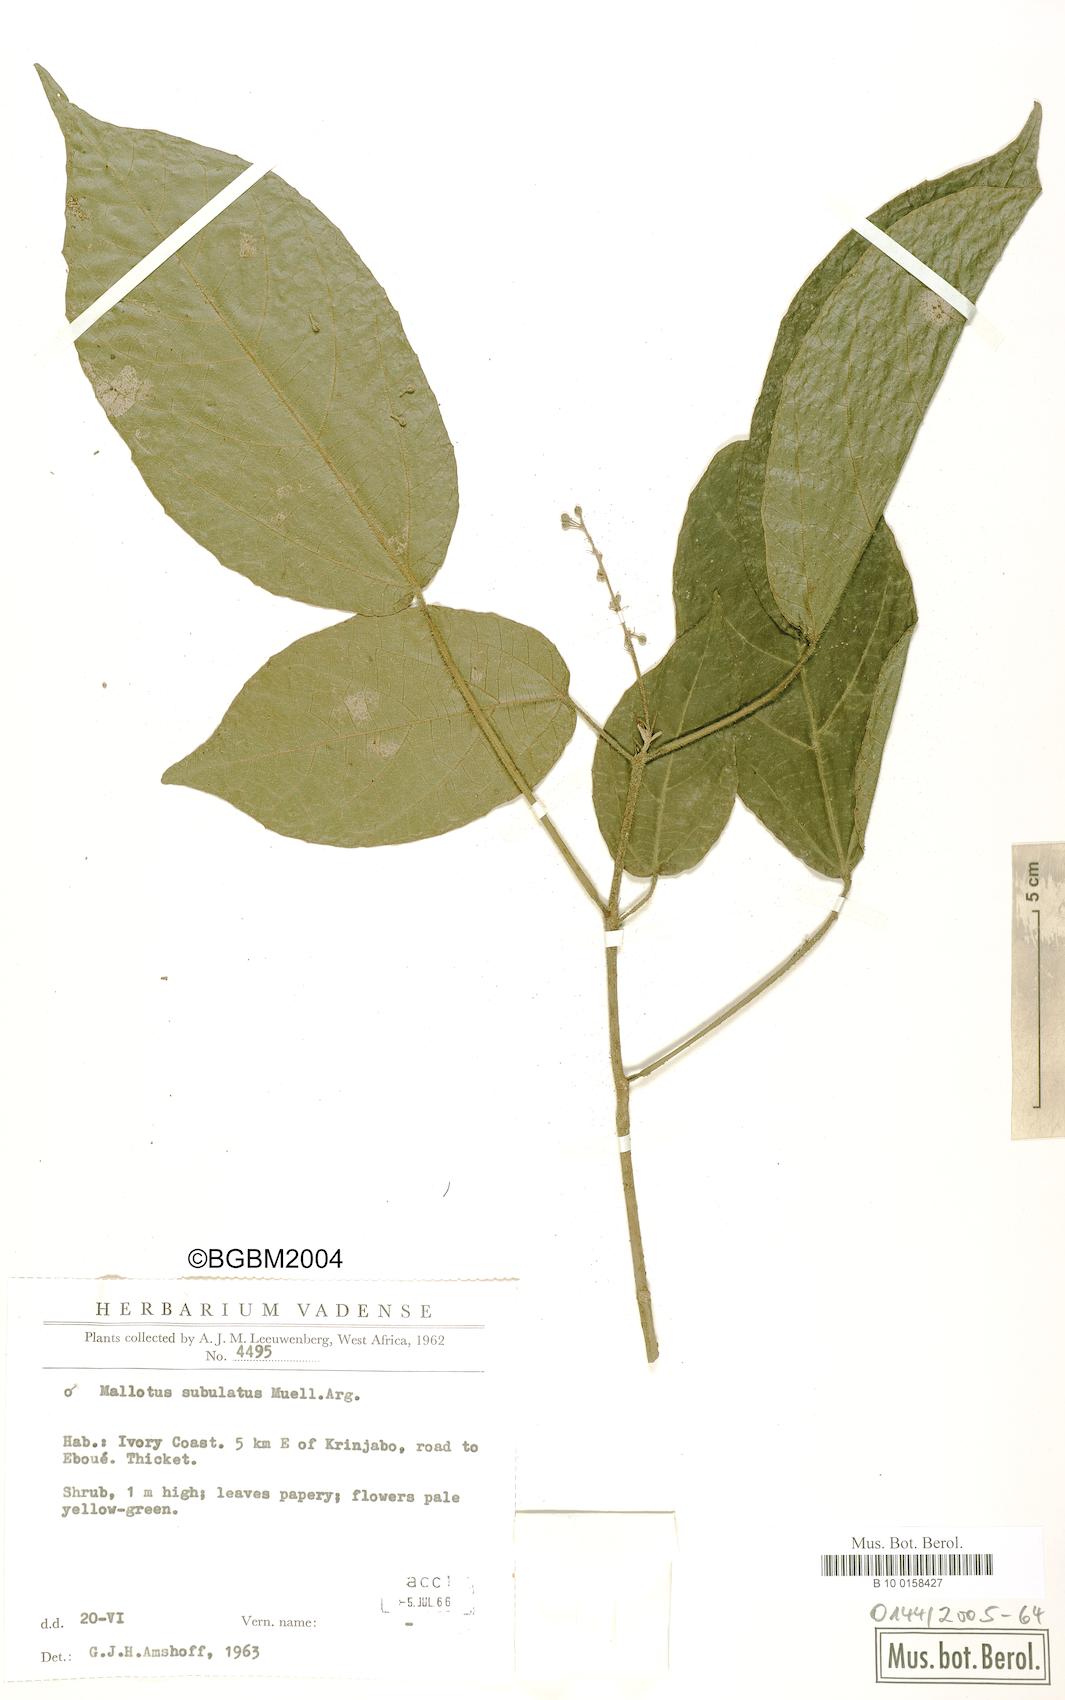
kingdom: Plantae
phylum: Tracheophyta
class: Magnoliopsida
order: Malpighiales
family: Euphorbiaceae
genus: Mallotus
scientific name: Mallotus subulatus
